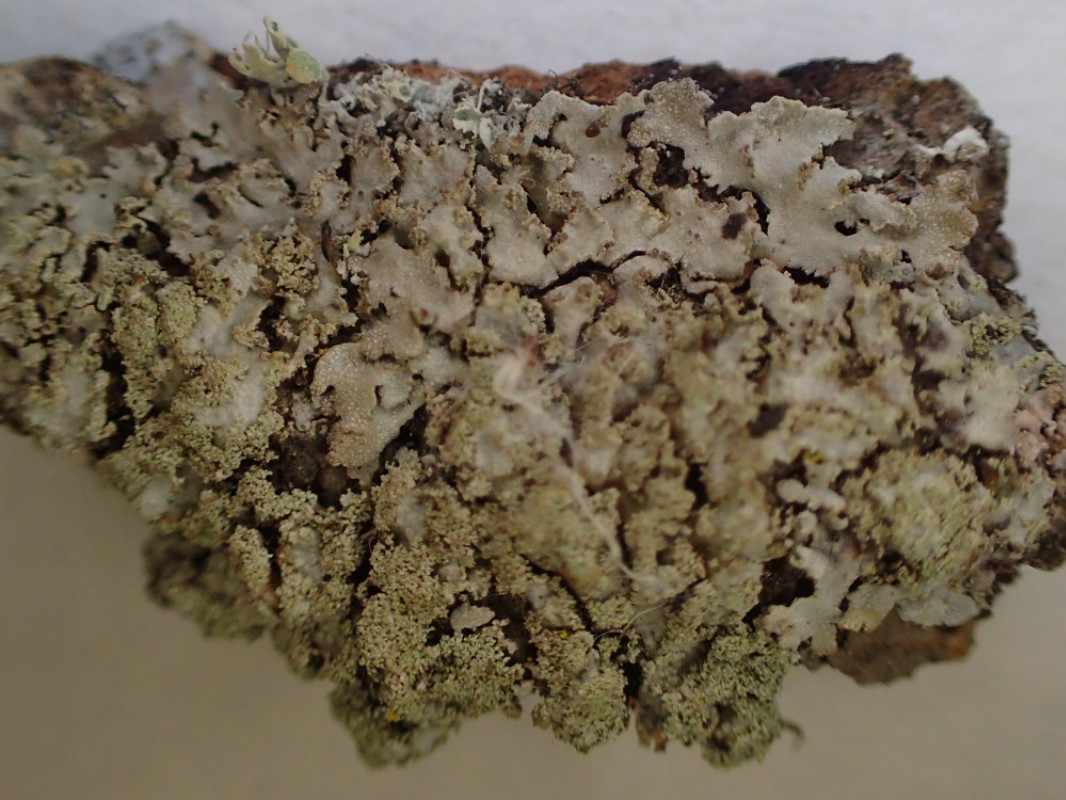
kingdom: Fungi
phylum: Ascomycota
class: Lecanoromycetes
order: Caliciales
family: Physciaceae
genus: Physconia
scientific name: Physconia perisidiosa
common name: liden dugrosetlav
